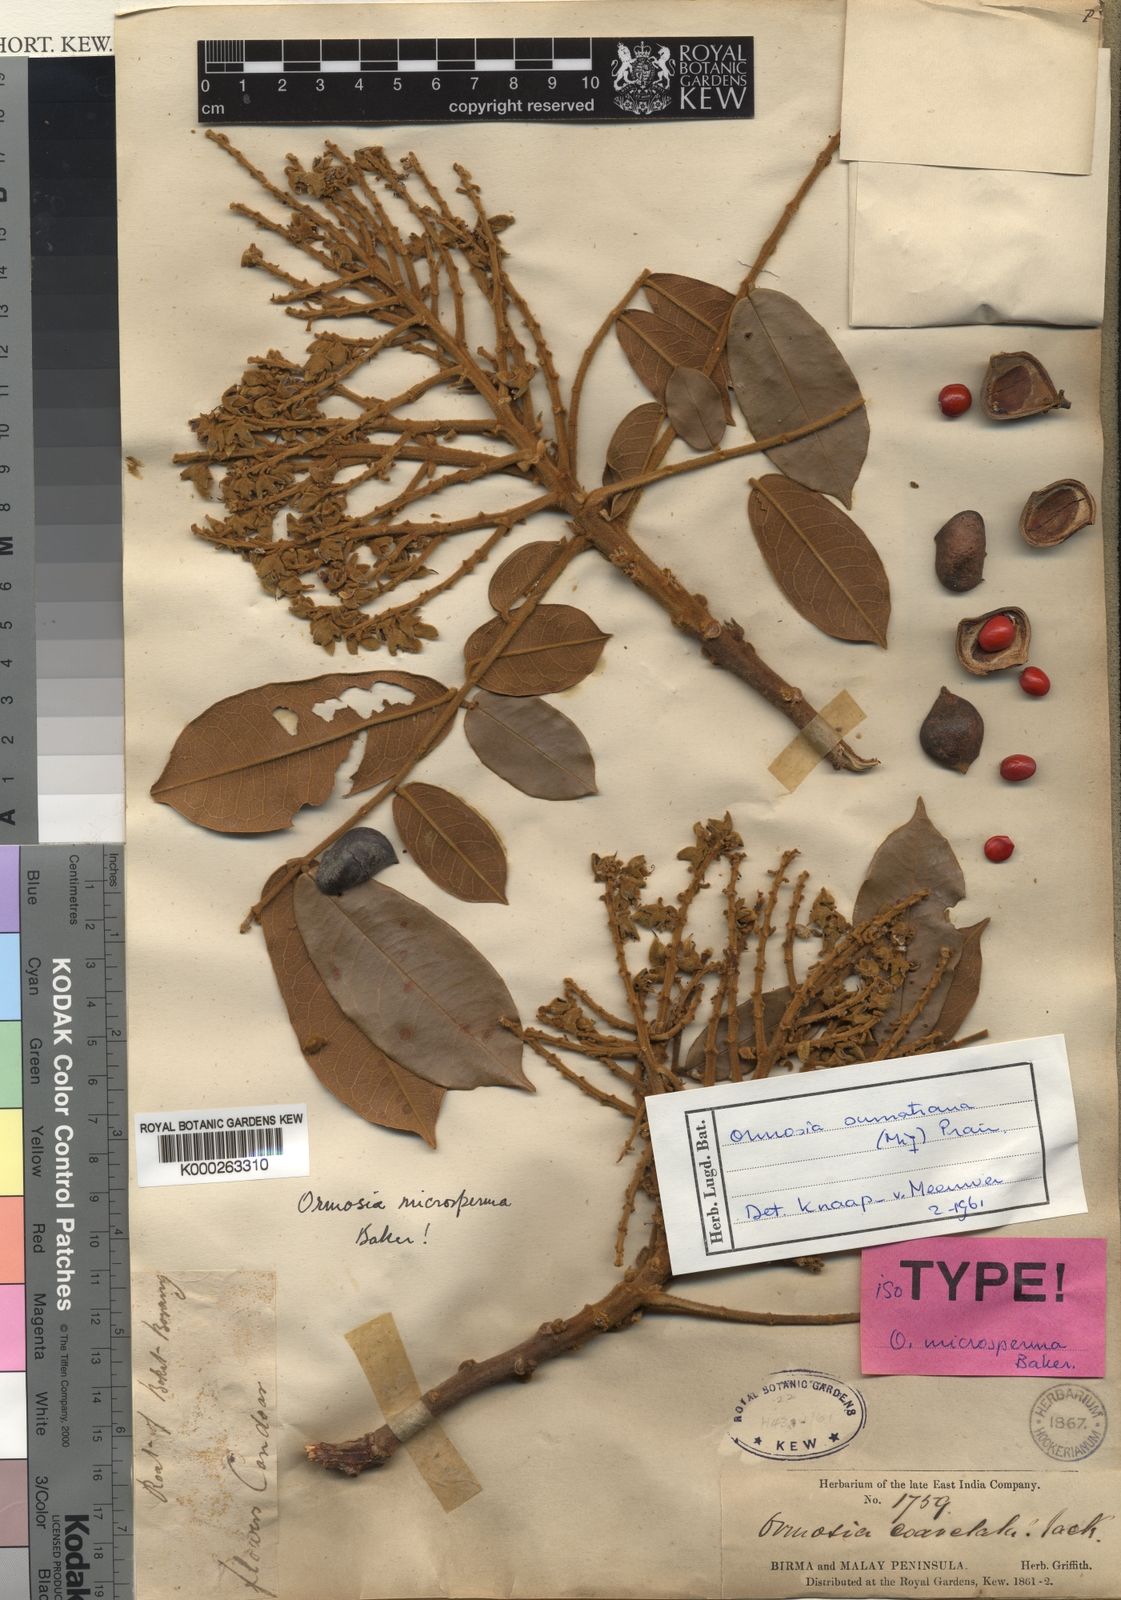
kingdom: Plantae
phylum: Tracheophyta
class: Magnoliopsida
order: Fabales
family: Fabaceae
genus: Ormosia
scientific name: Ormosia sumatrana
